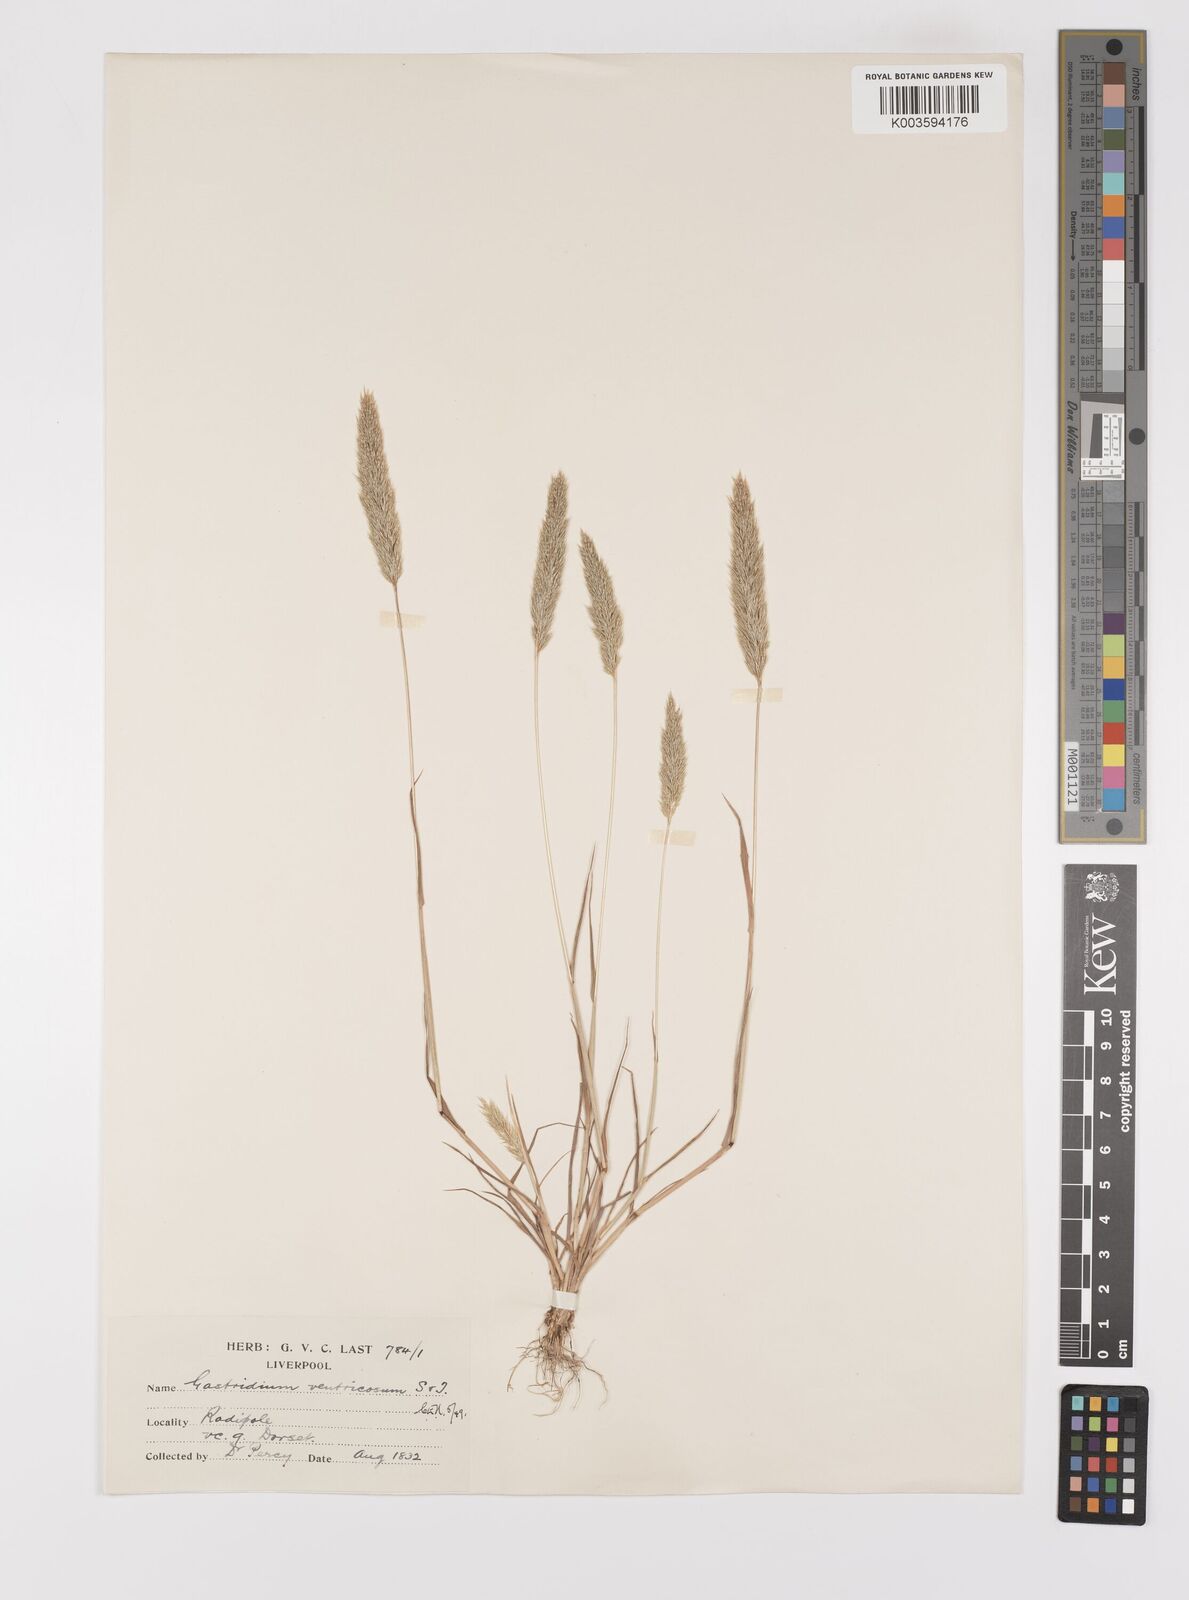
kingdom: Plantae
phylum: Tracheophyta
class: Liliopsida
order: Poales
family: Poaceae
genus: Gastridium
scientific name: Gastridium ventricosum
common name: Nit-grass
